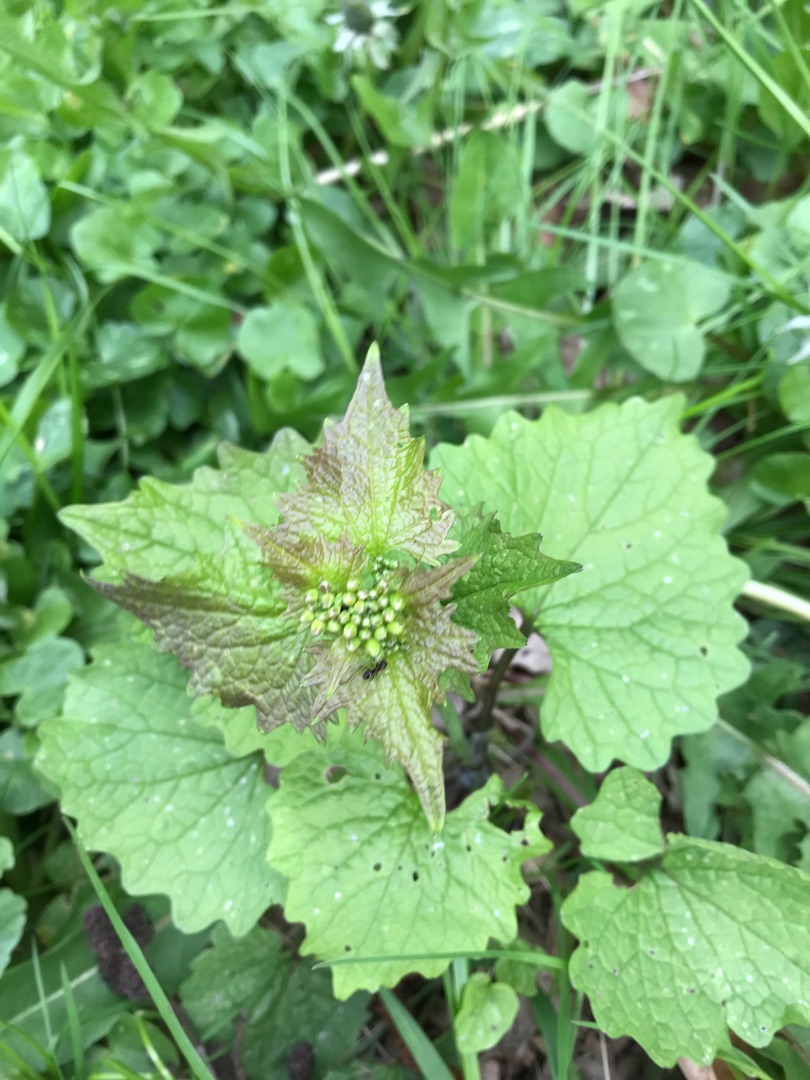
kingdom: Plantae
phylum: Tracheophyta
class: Magnoliopsida
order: Brassicales
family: Brassicaceae
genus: Alliaria
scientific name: Alliaria petiolata
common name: Løgkarse
